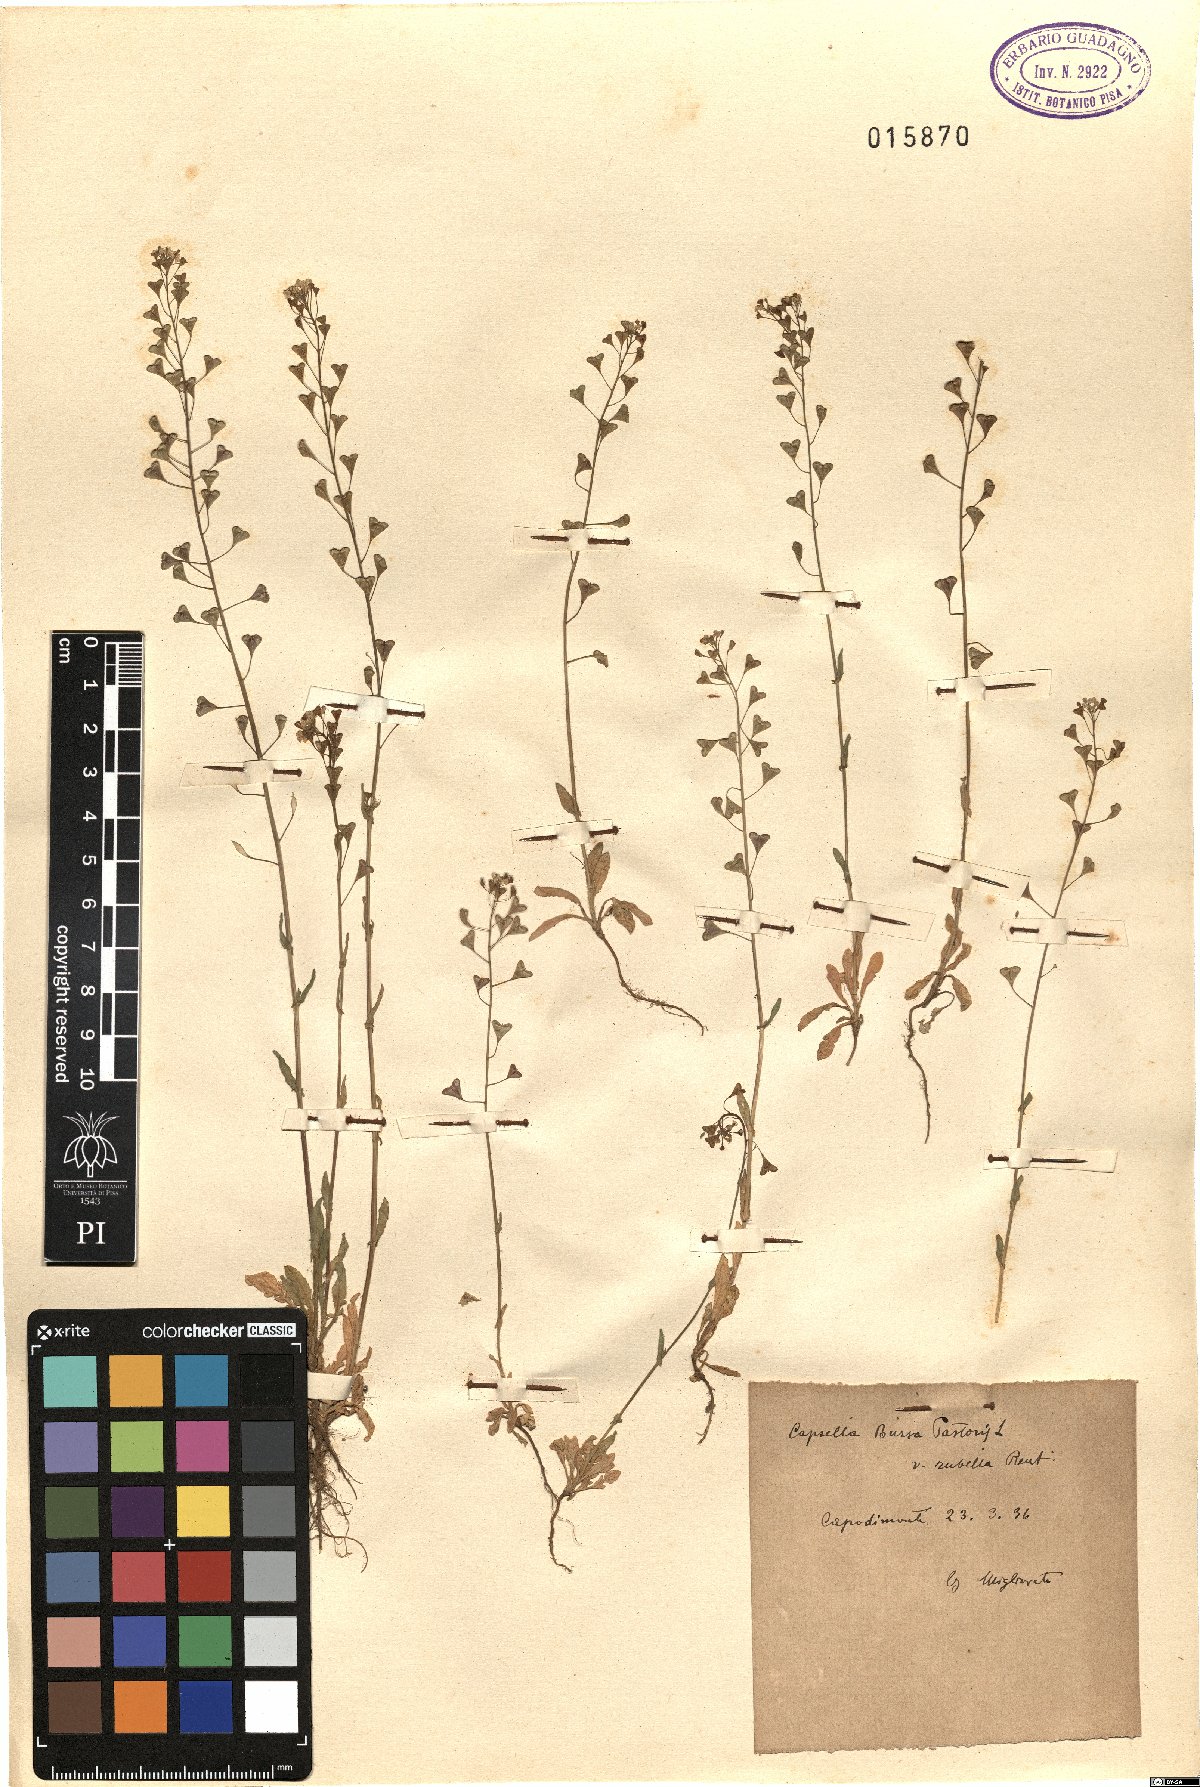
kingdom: Plantae
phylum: Tracheophyta
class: Magnoliopsida
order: Brassicales
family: Brassicaceae
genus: Capsella
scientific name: Capsella rubella
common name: Pink shepherd's-purse
